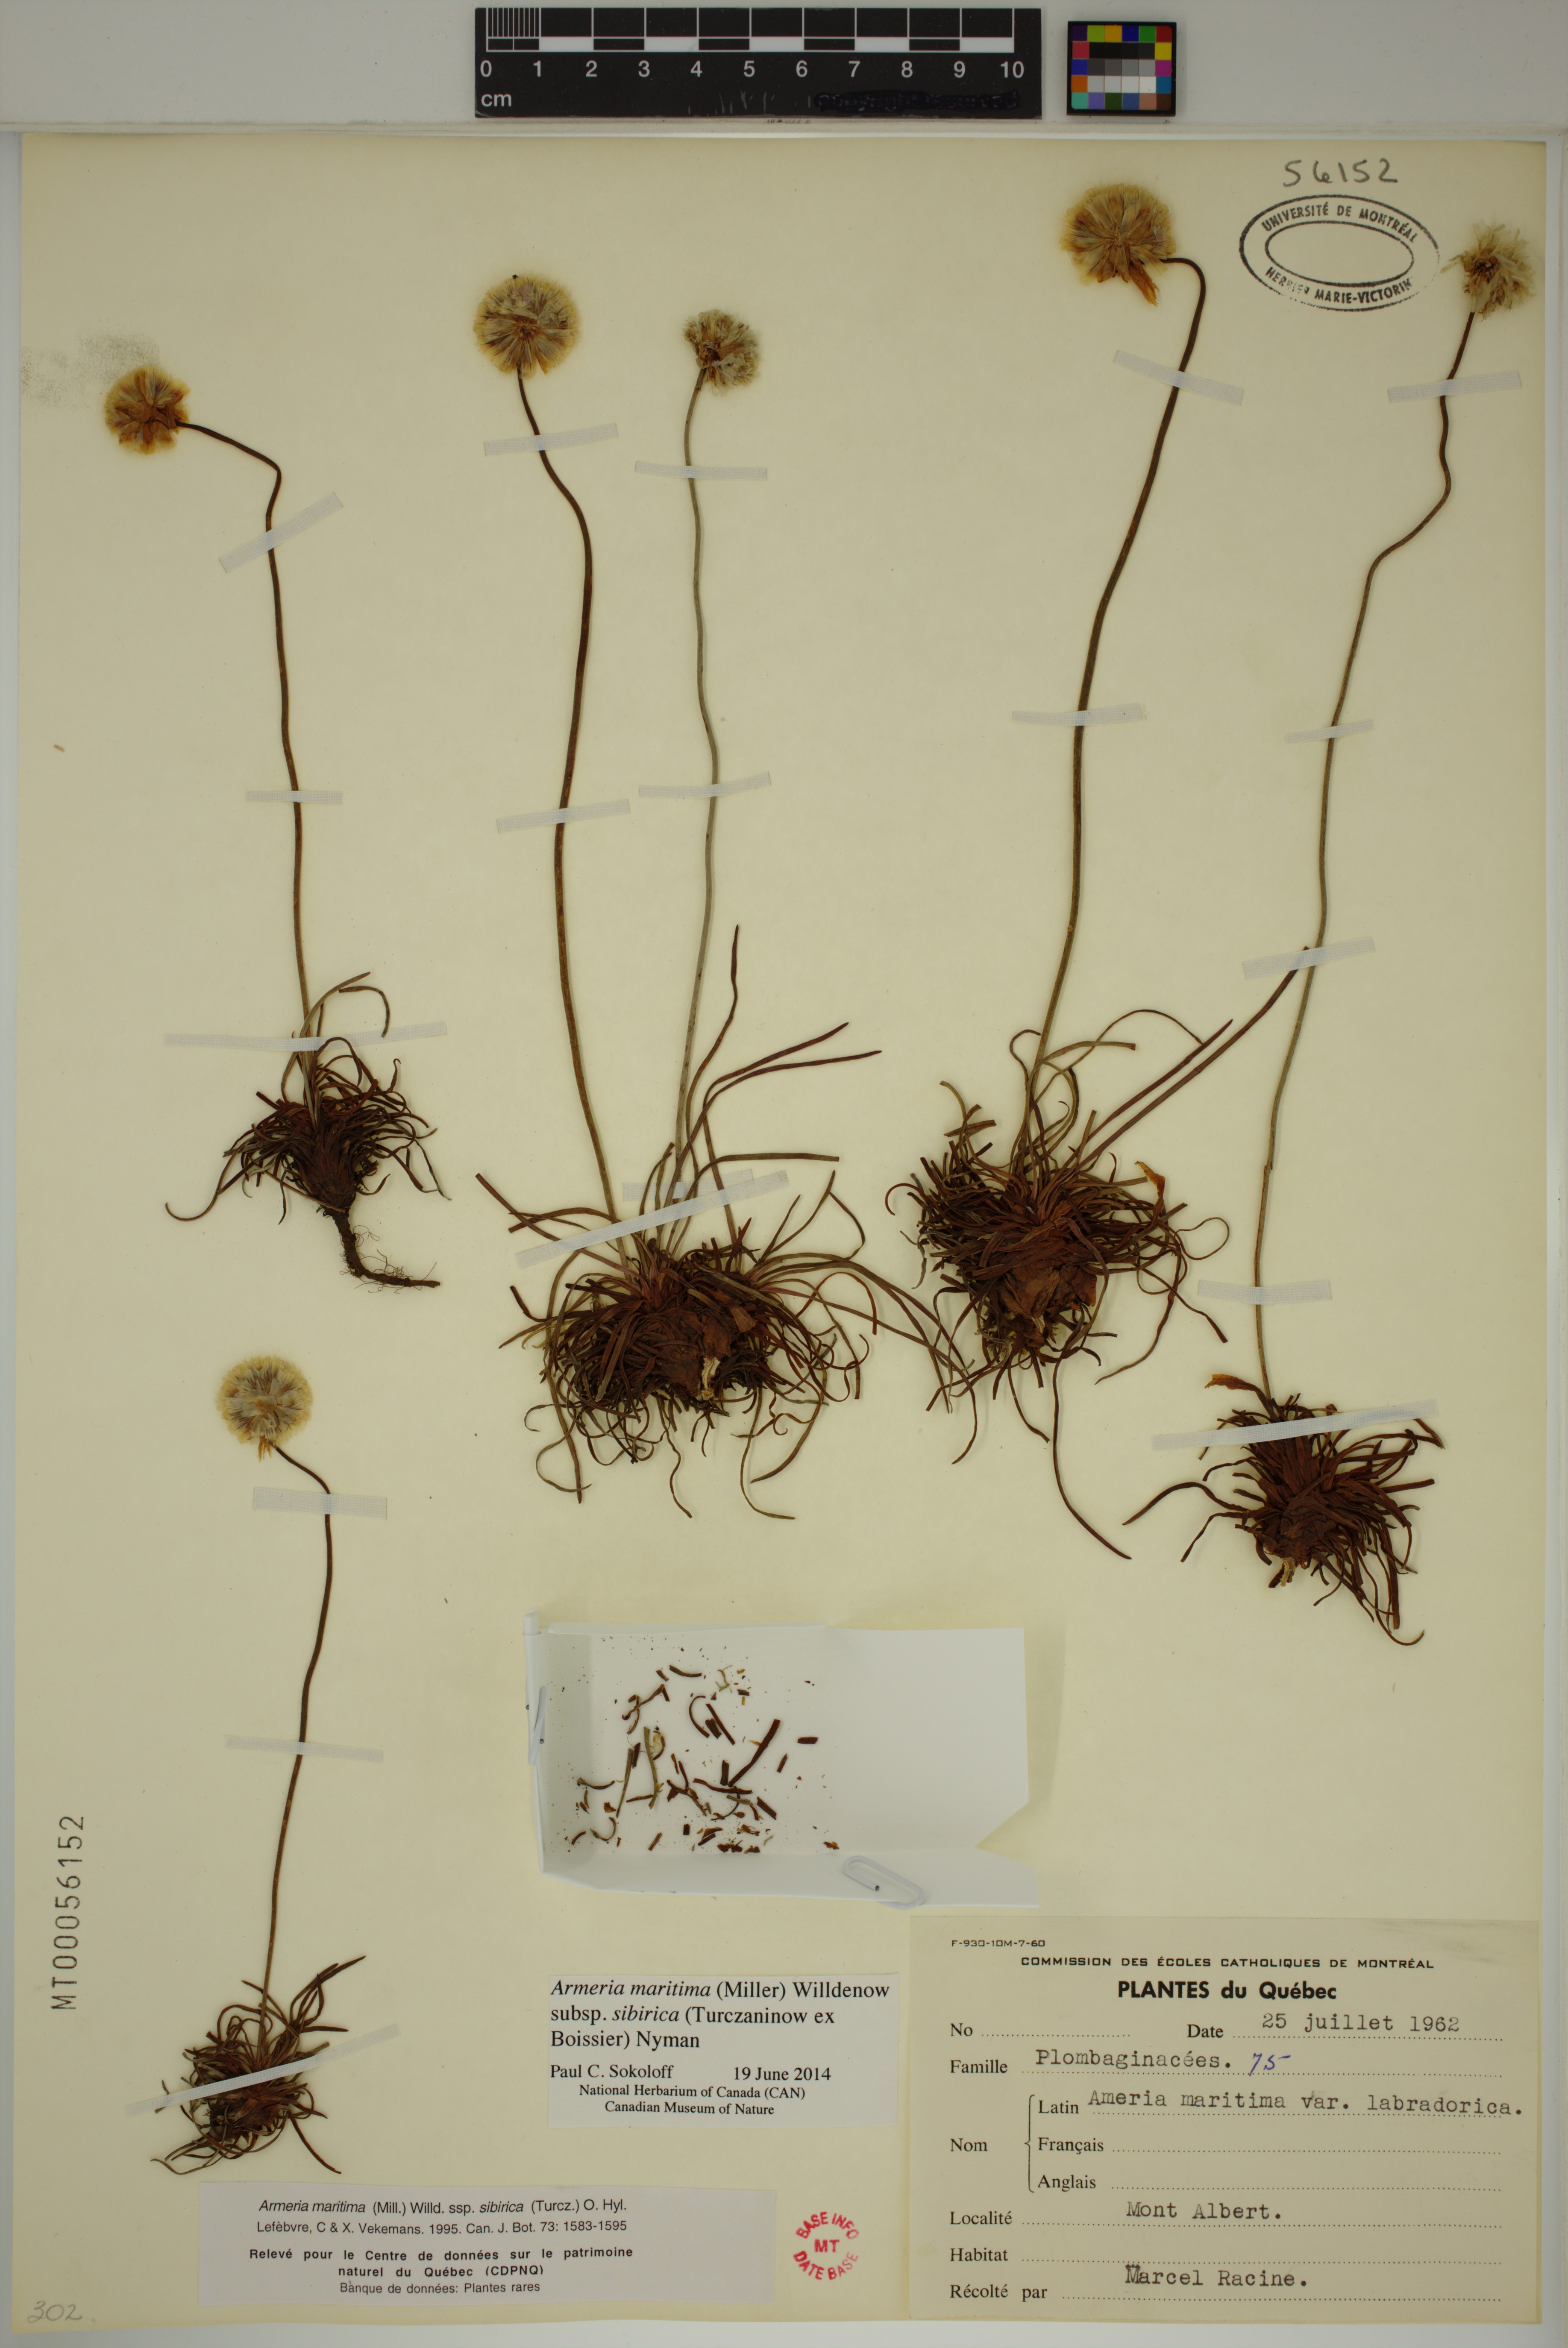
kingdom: Plantae
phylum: Tracheophyta
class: Magnoliopsida
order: Caryophyllales
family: Plumbaginaceae
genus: Armeria
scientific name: Armeria maritima
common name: Thrift
